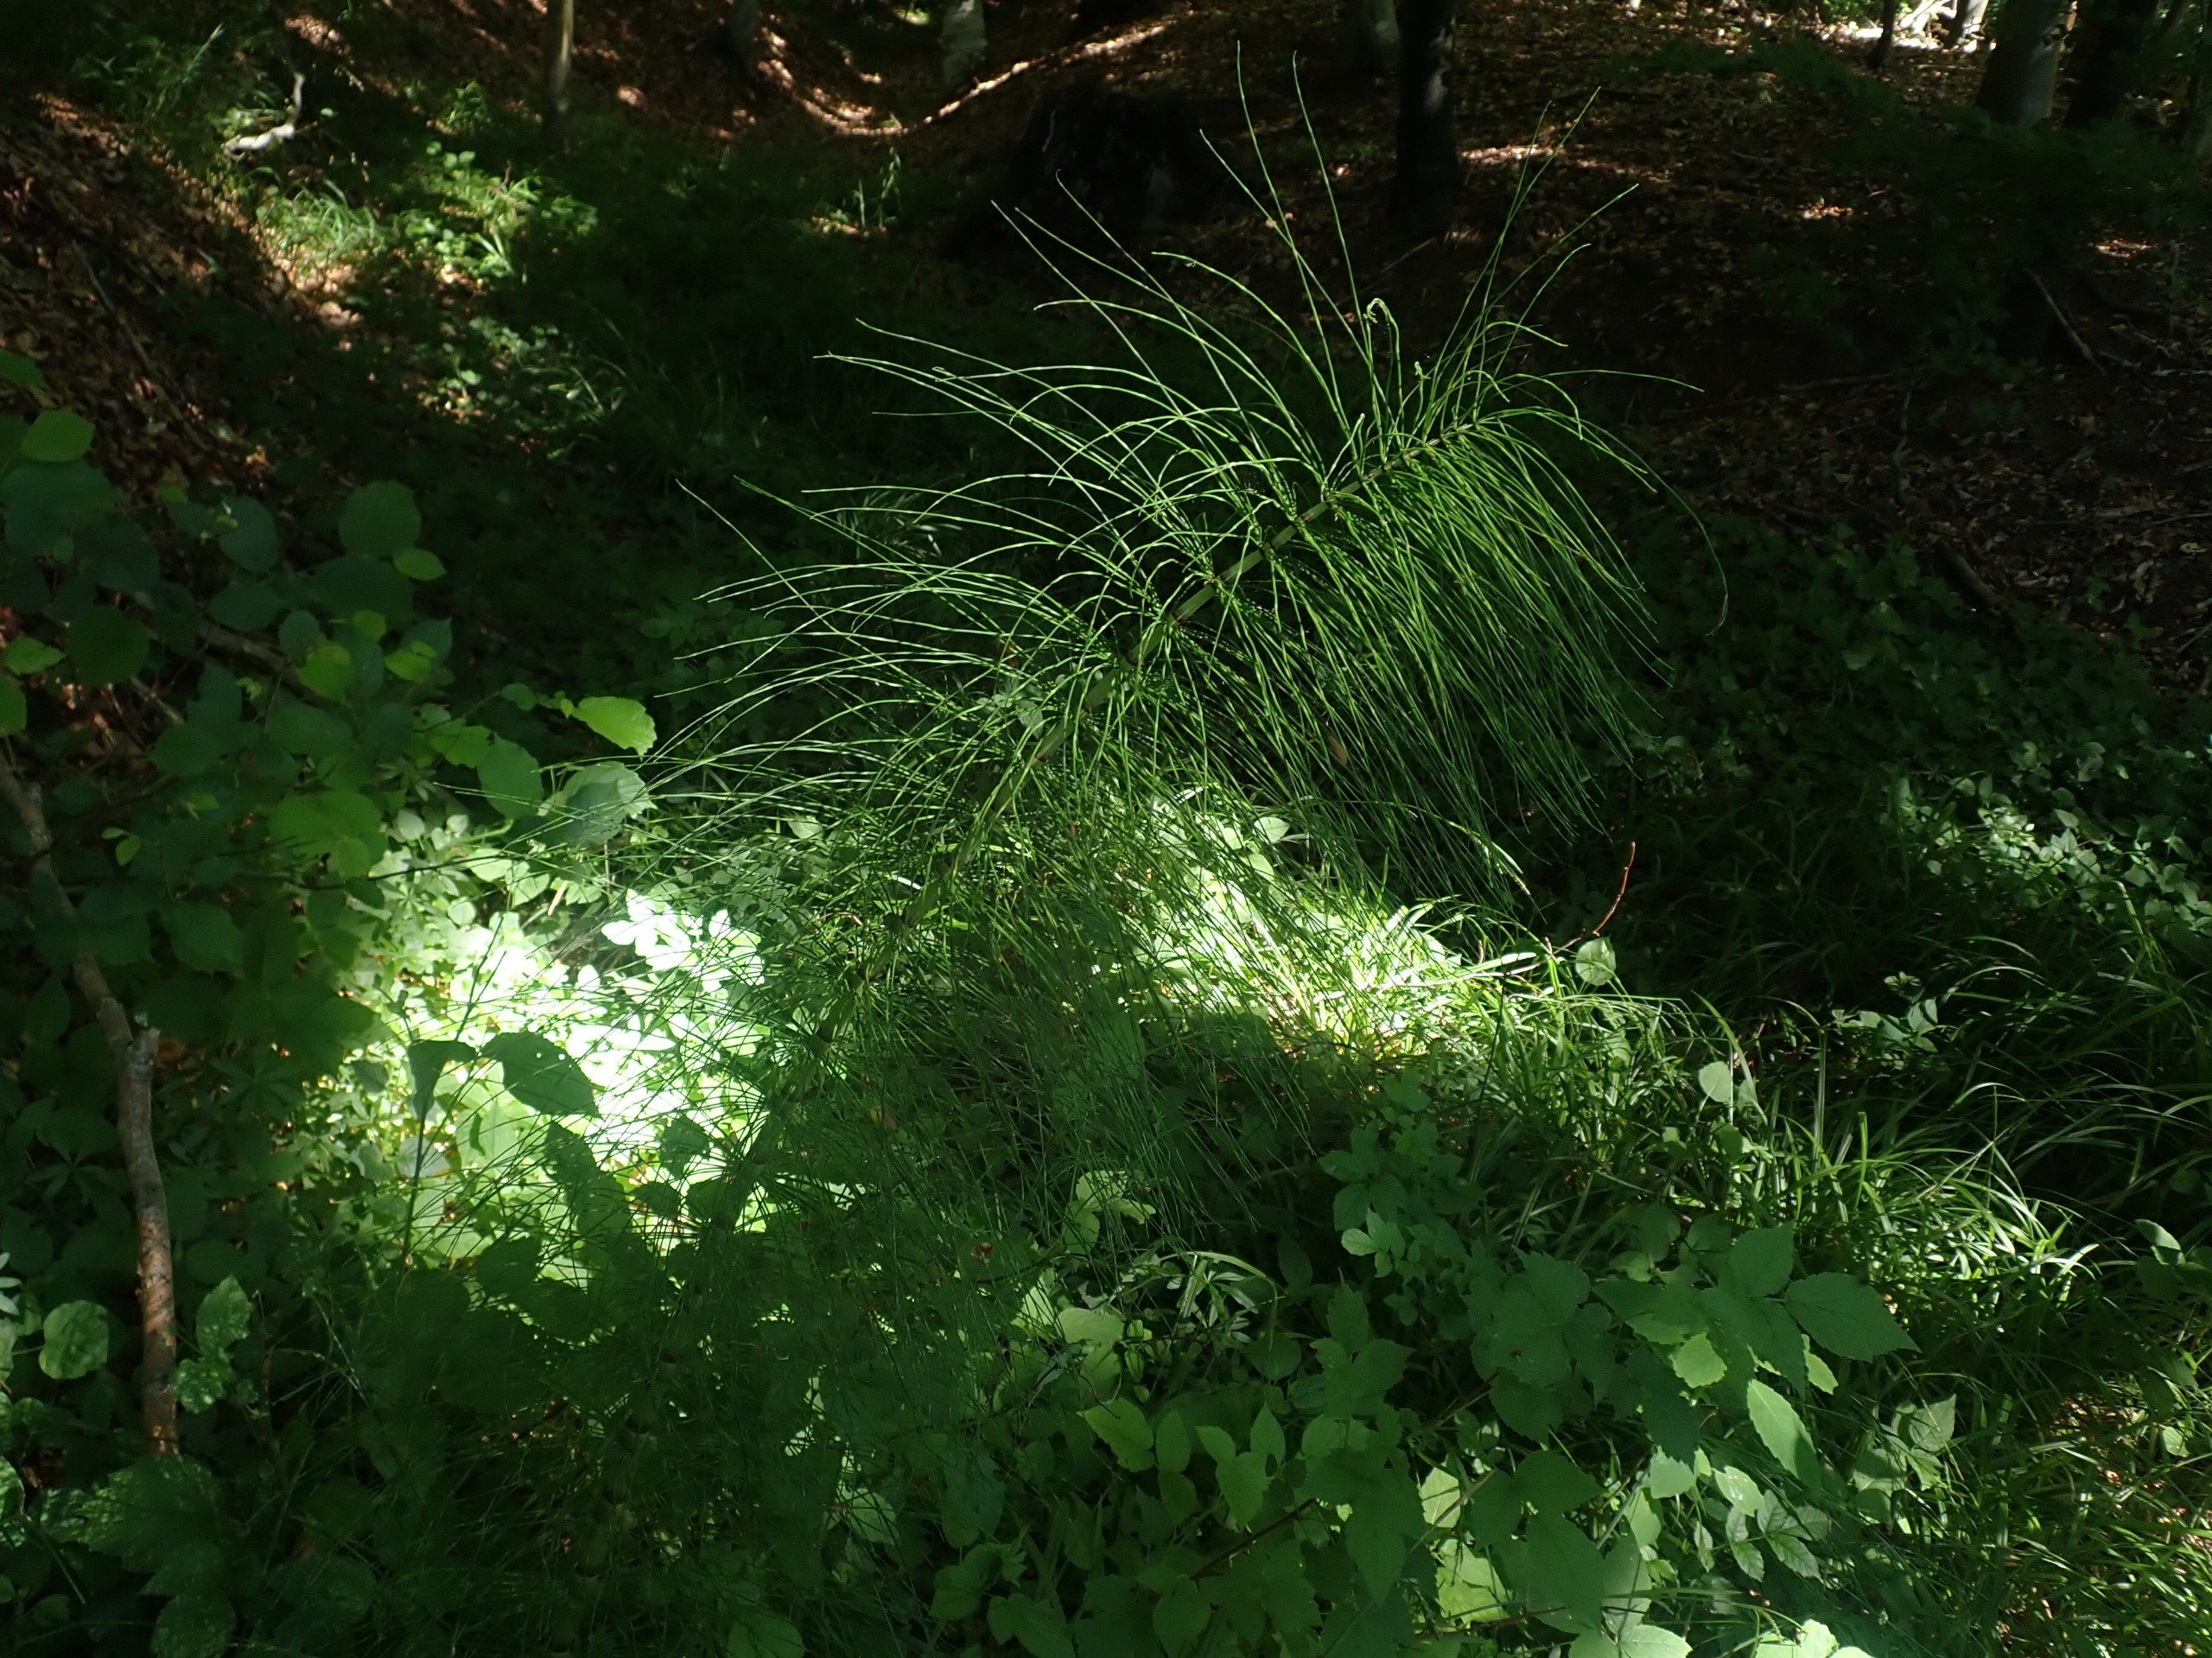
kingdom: Plantae
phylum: Tracheophyta
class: Polypodiopsida
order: Equisetales
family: Equisetaceae
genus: Equisetum
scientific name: Equisetum telmateia
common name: Elfenbens-padderok
